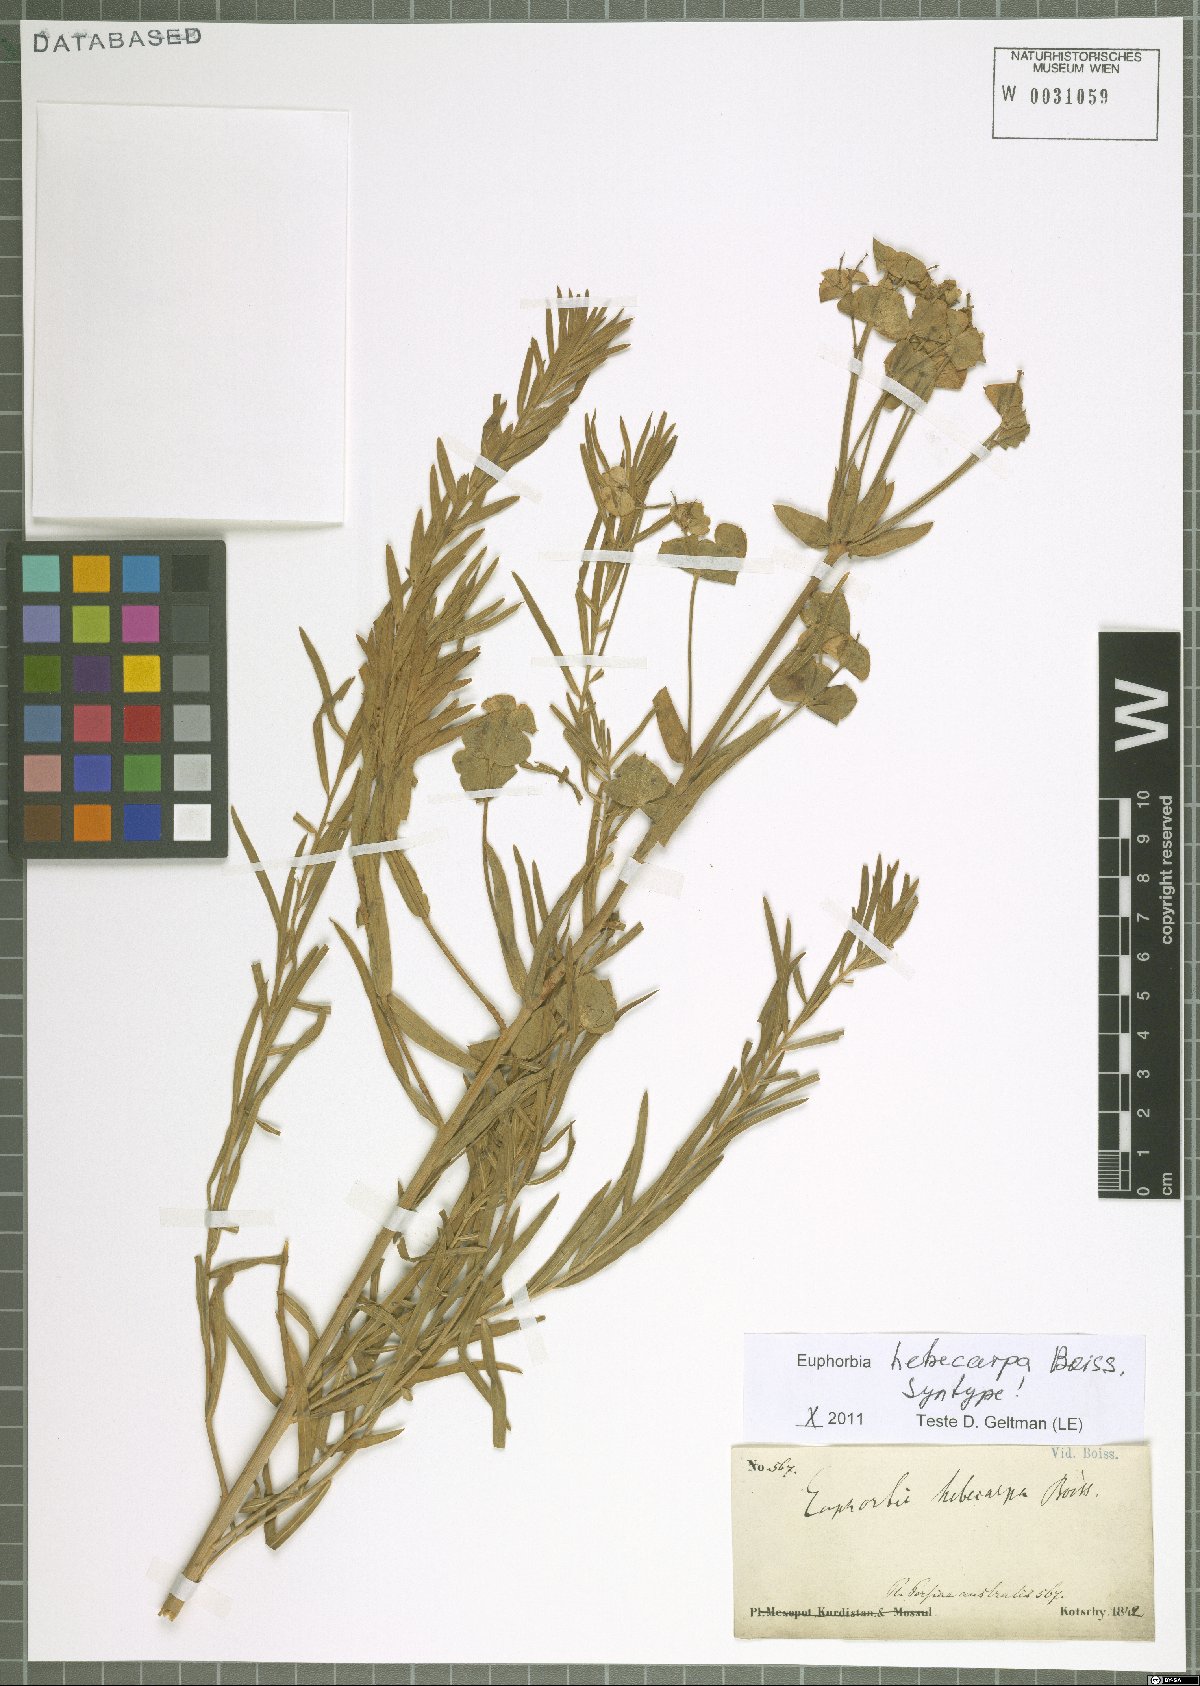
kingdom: Plantae
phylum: Tracheophyta
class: Magnoliopsida
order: Malpighiales
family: Euphorbiaceae
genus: Euphorbia
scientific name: Euphorbia hebecarpa
